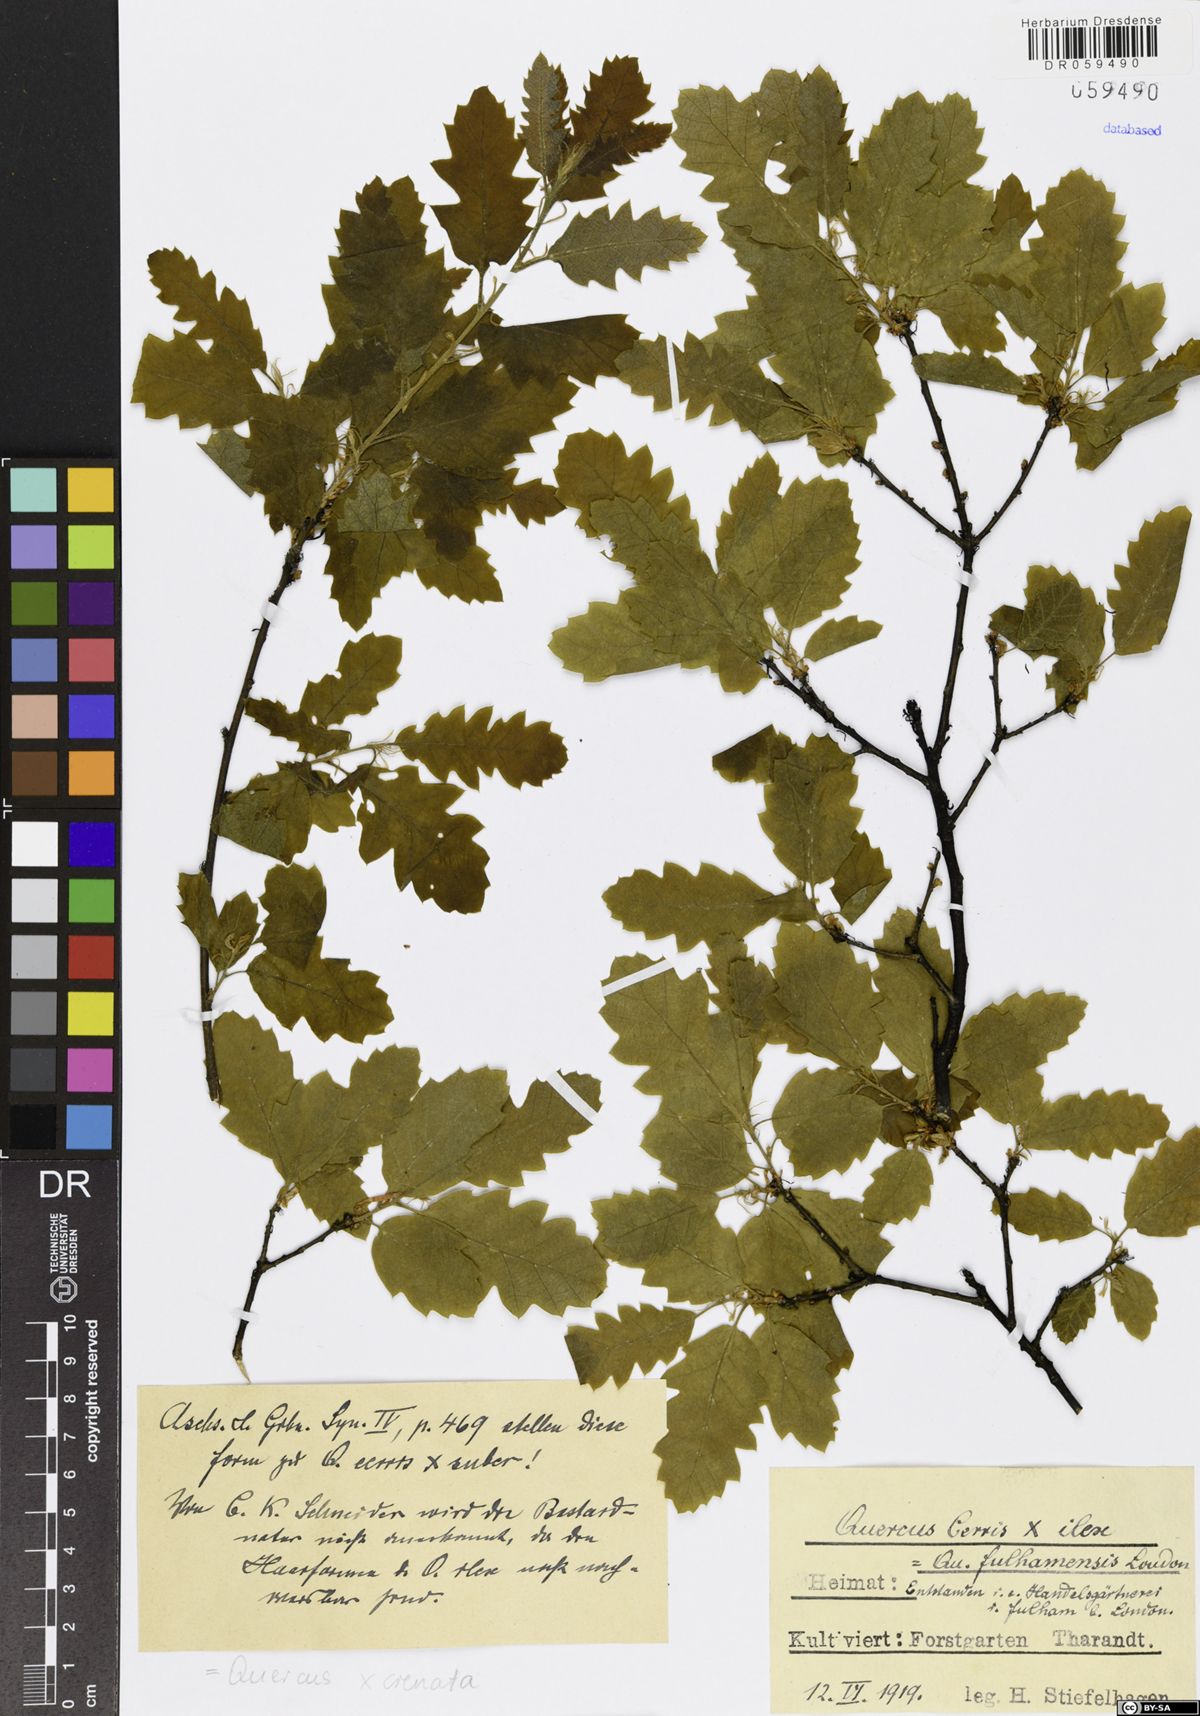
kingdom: Plantae
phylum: Tracheophyta
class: Magnoliopsida
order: Fagales
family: Fagaceae
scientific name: Fagaceae
